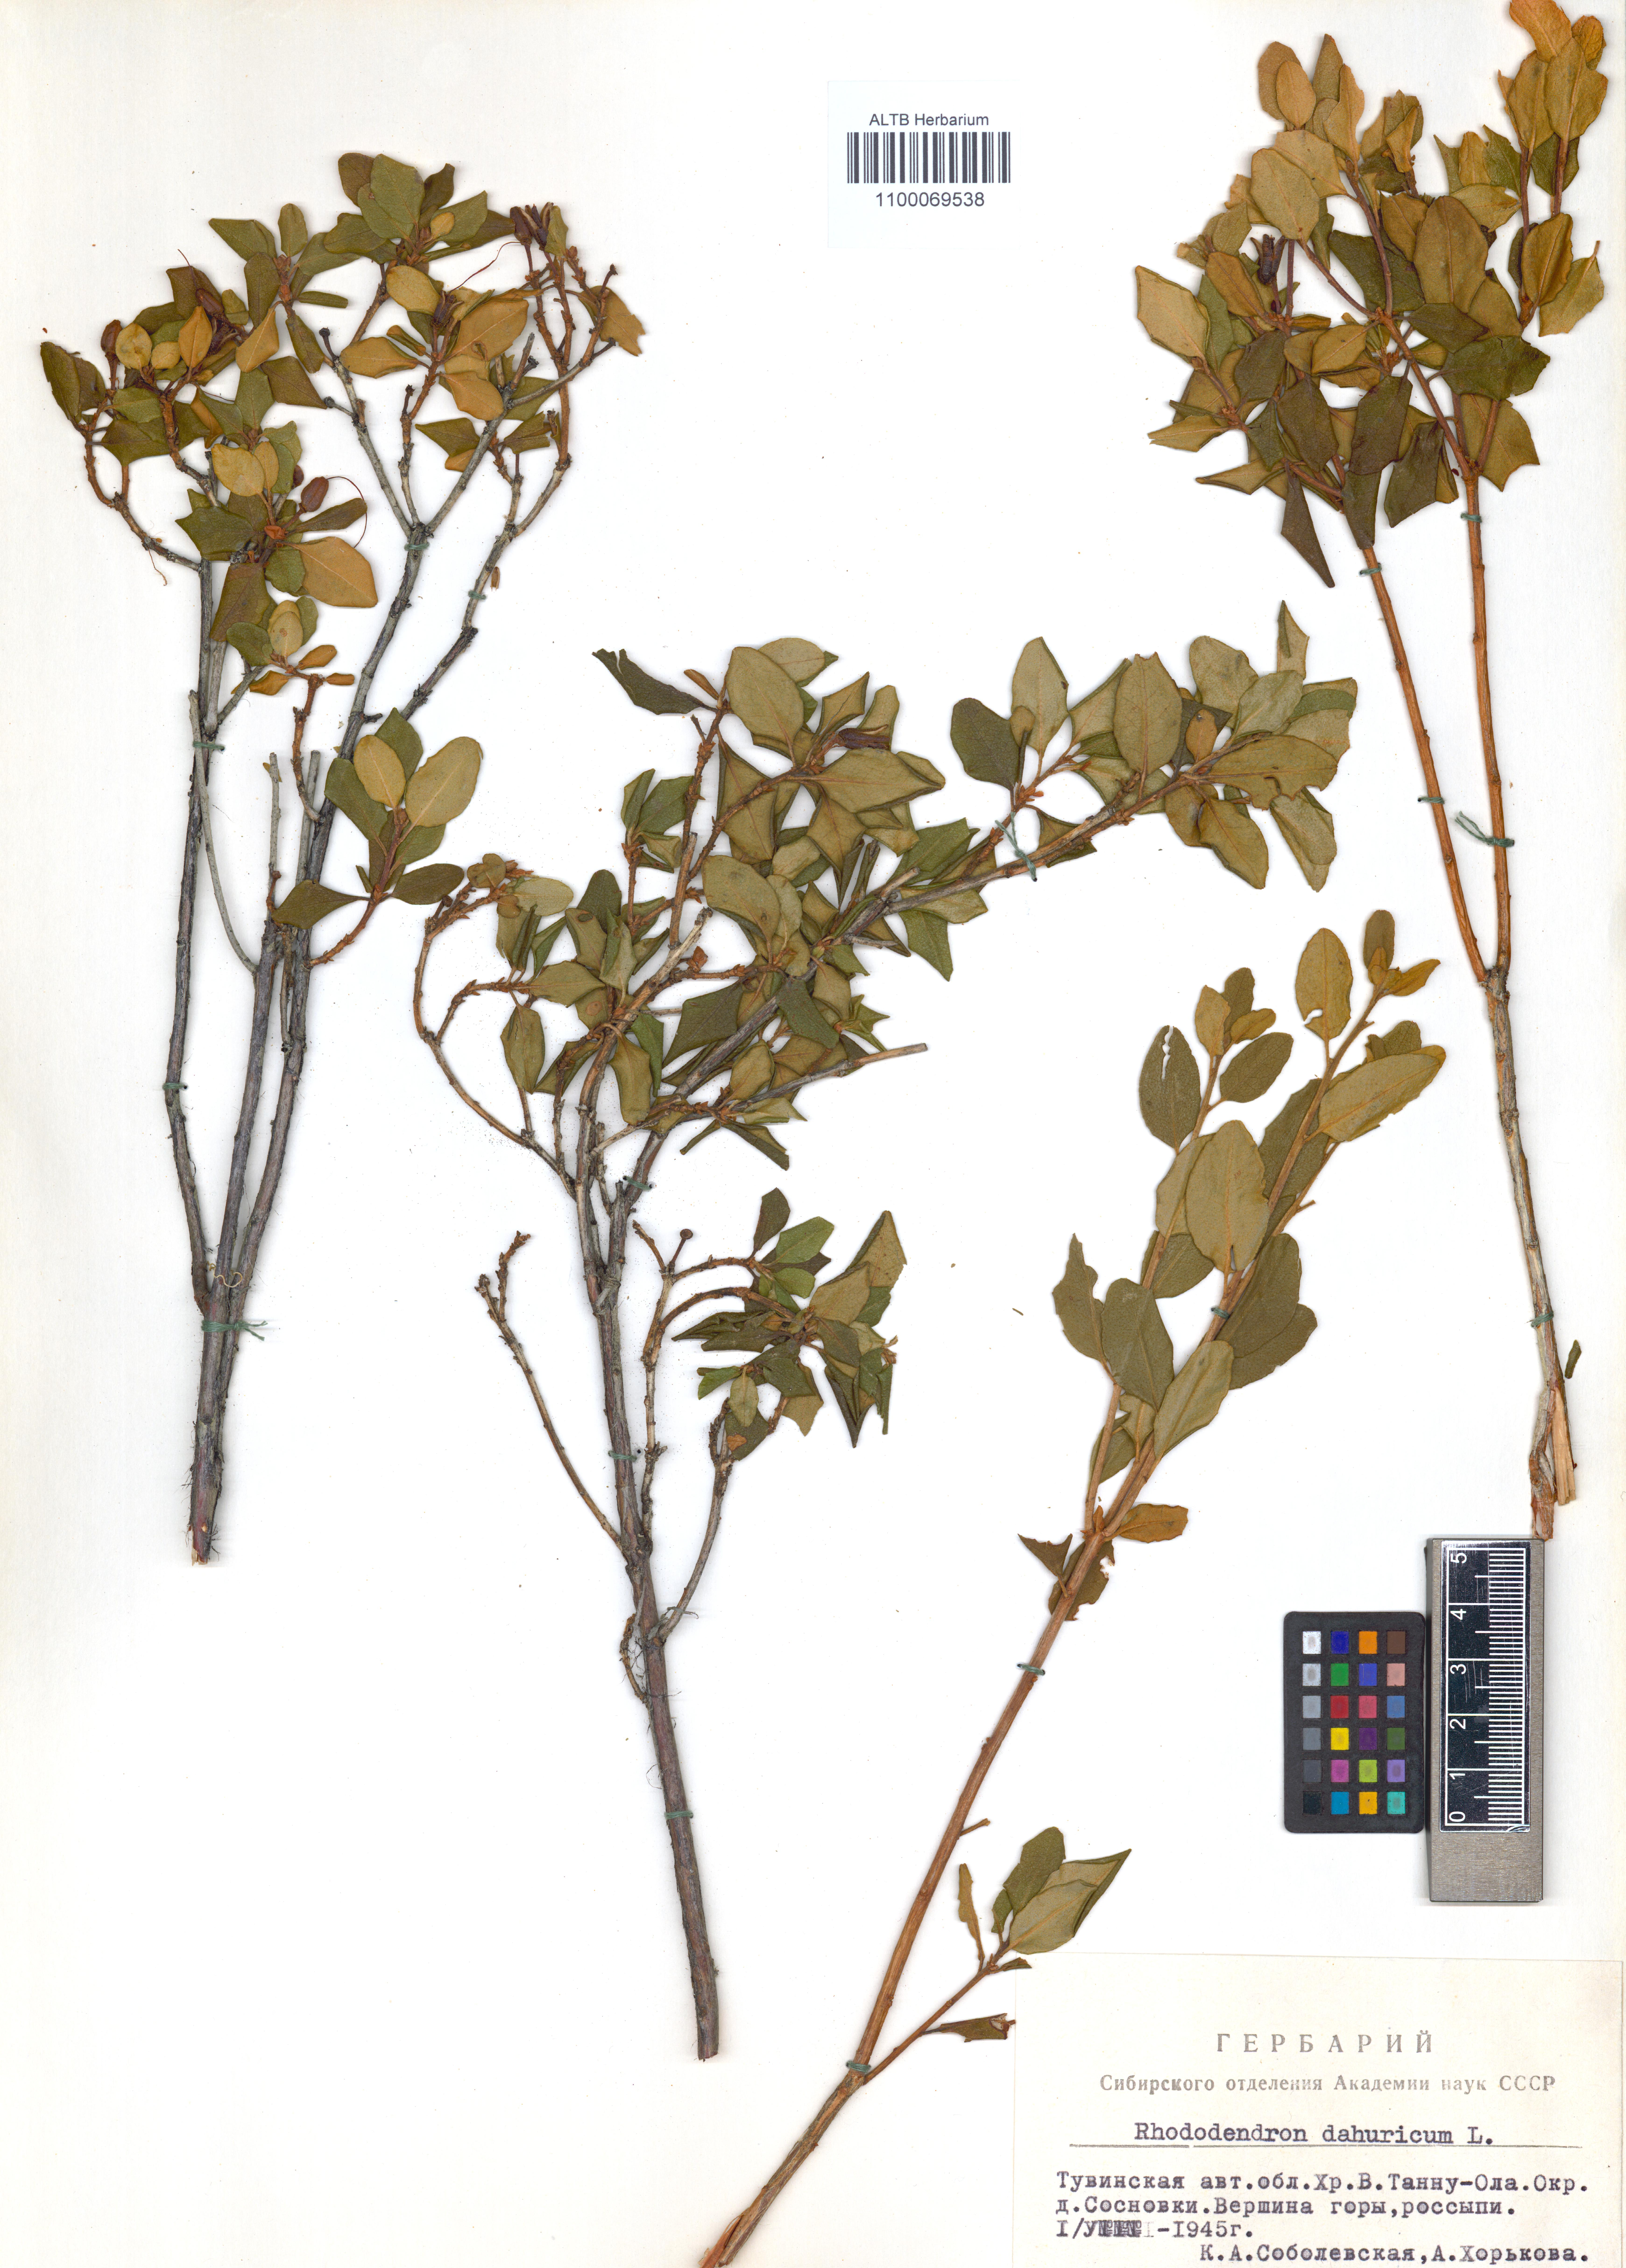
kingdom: Plantae
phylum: Tracheophyta
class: Magnoliopsida
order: Ericales
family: Ericaceae
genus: Rhododendron
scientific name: Rhododendron dauricum
